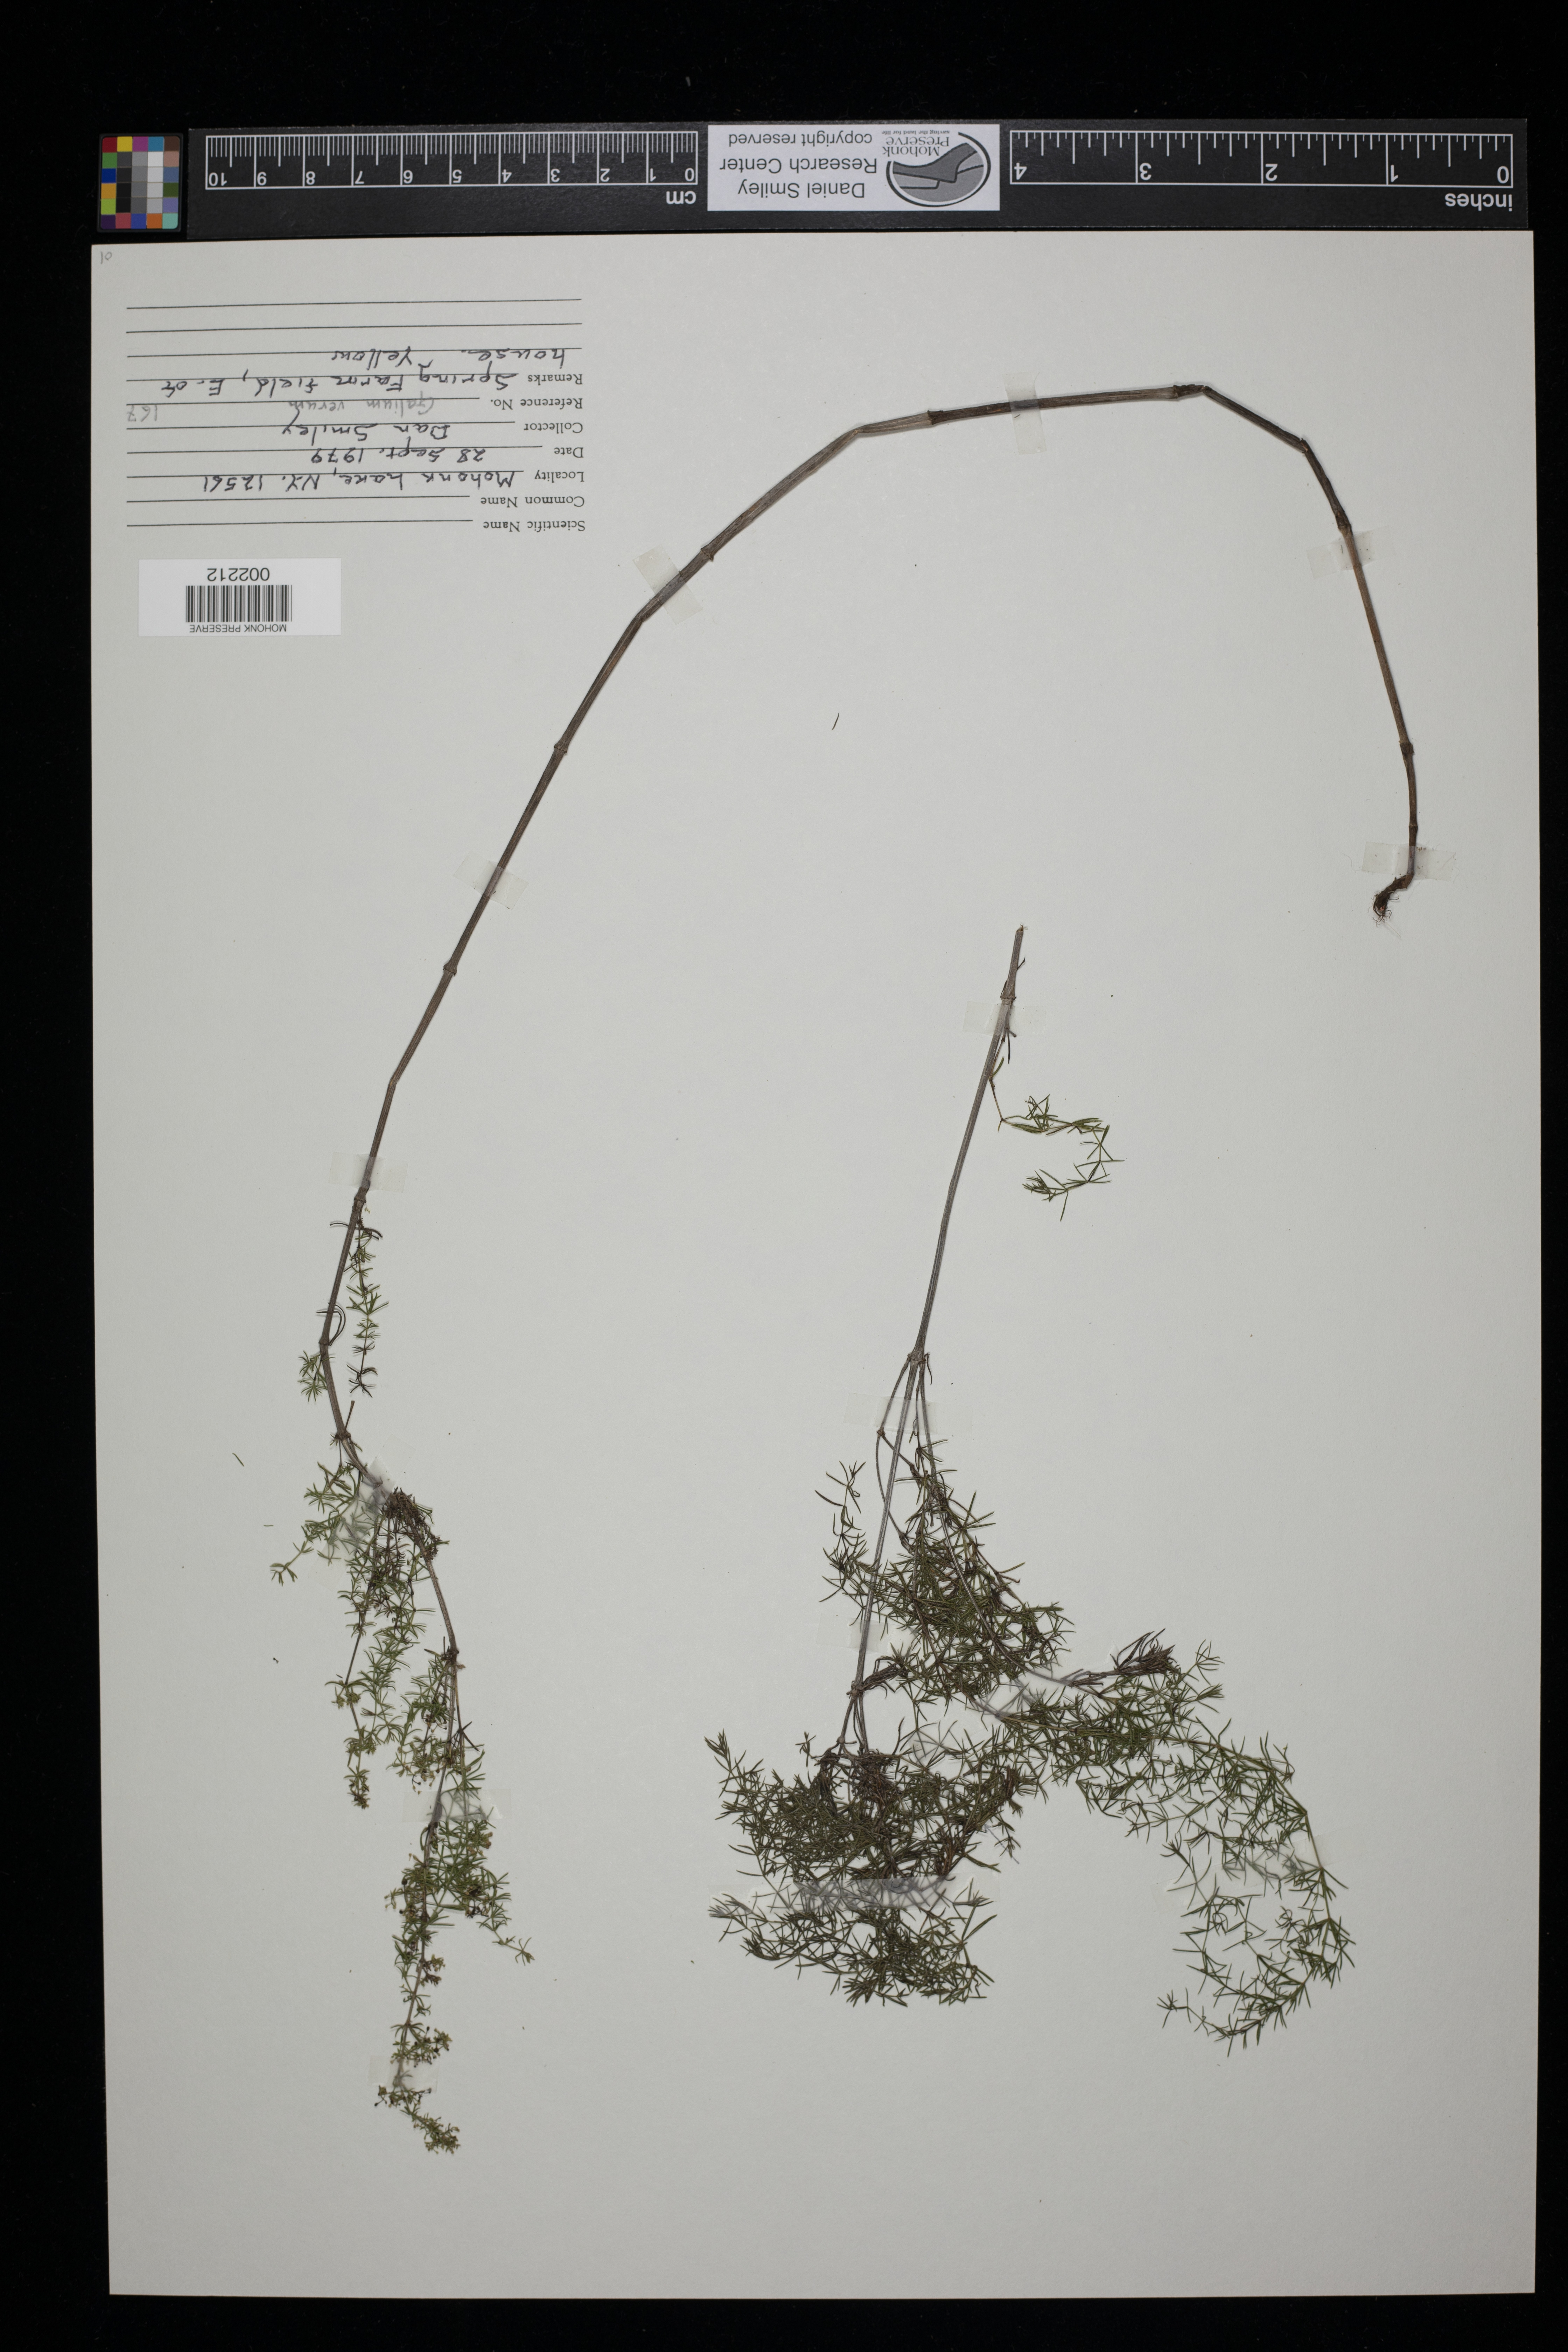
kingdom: Plantae
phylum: Tracheophyta
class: Magnoliopsida
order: Gentianales
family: Rubiaceae
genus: Galium
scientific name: Galium verum
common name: Lady's bedstraw
